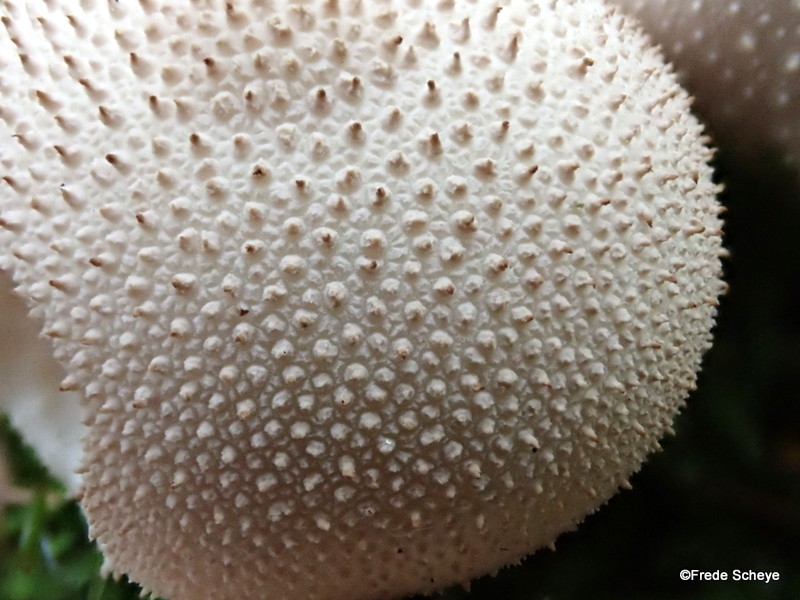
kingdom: Fungi
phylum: Basidiomycota
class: Agaricomycetes
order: Agaricales
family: Lycoperdaceae
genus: Lycoperdon
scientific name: Lycoperdon perlatum
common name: krystal-støvbold
